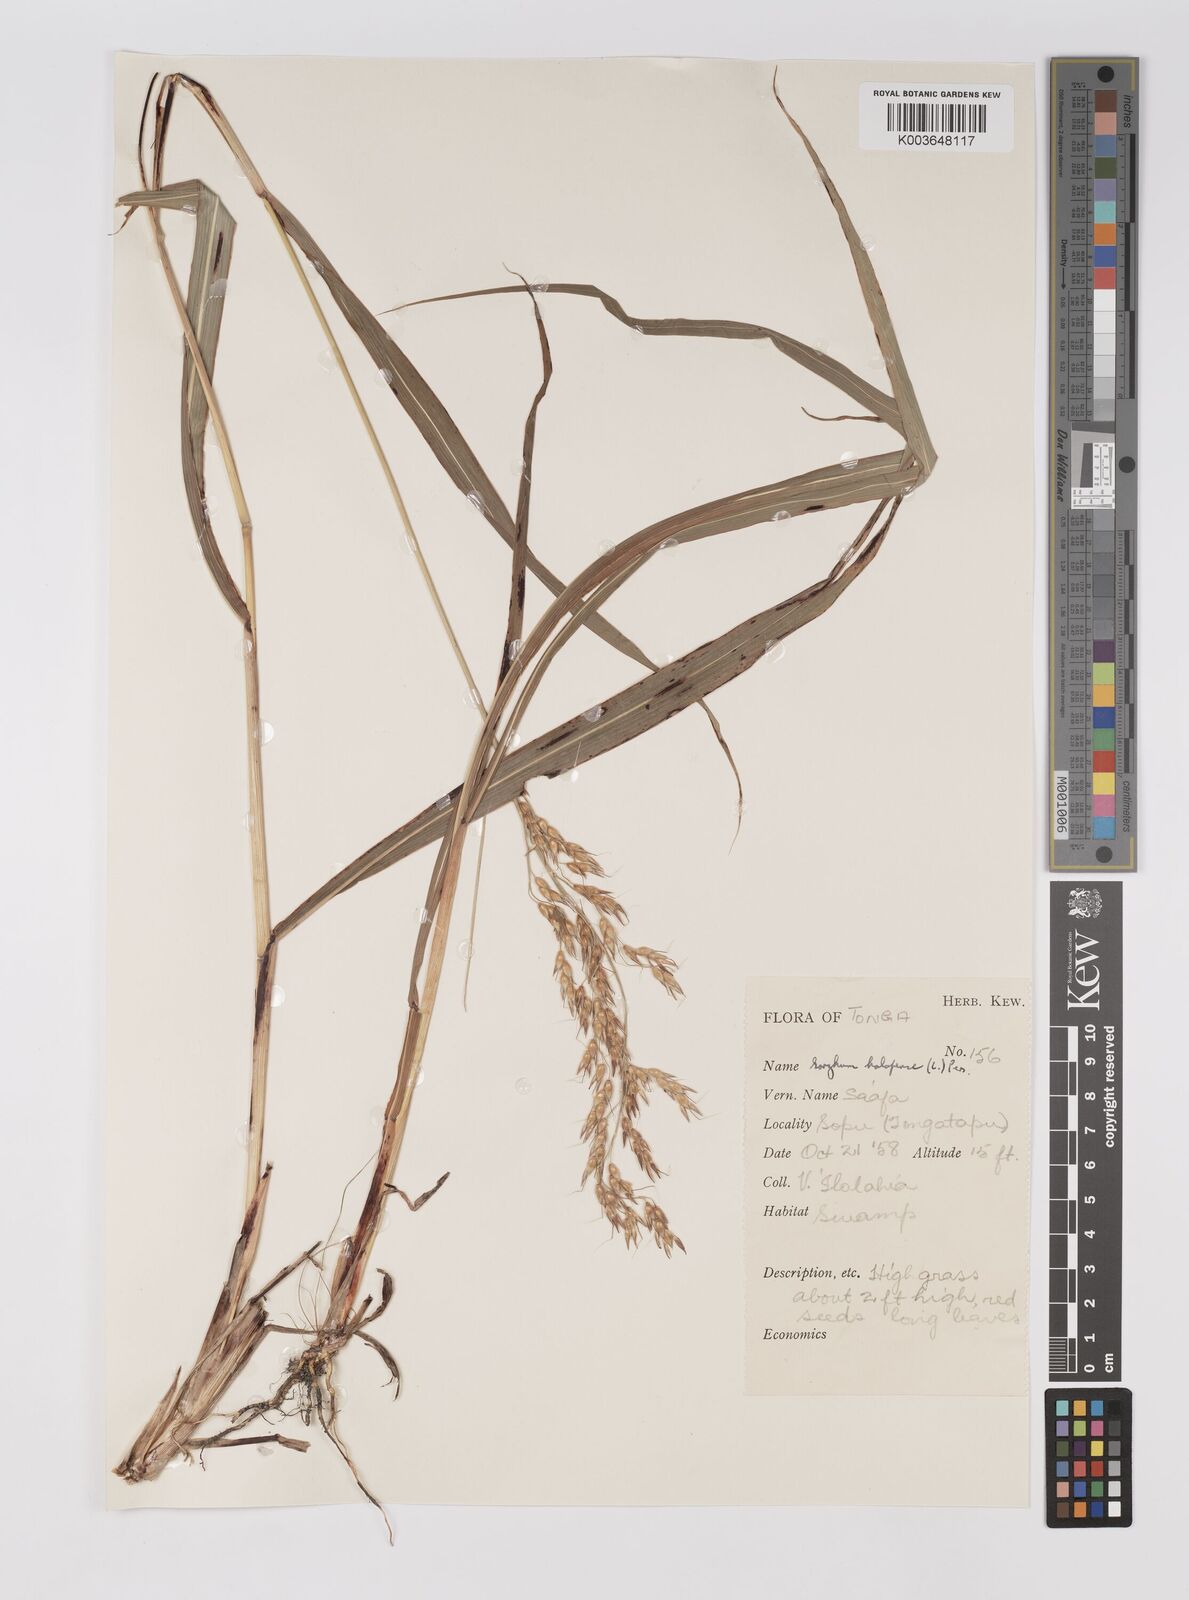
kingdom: Plantae
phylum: Tracheophyta
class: Liliopsida
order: Poales
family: Poaceae
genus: Sorghum
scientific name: Sorghum arundinaceum
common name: Sorghum
